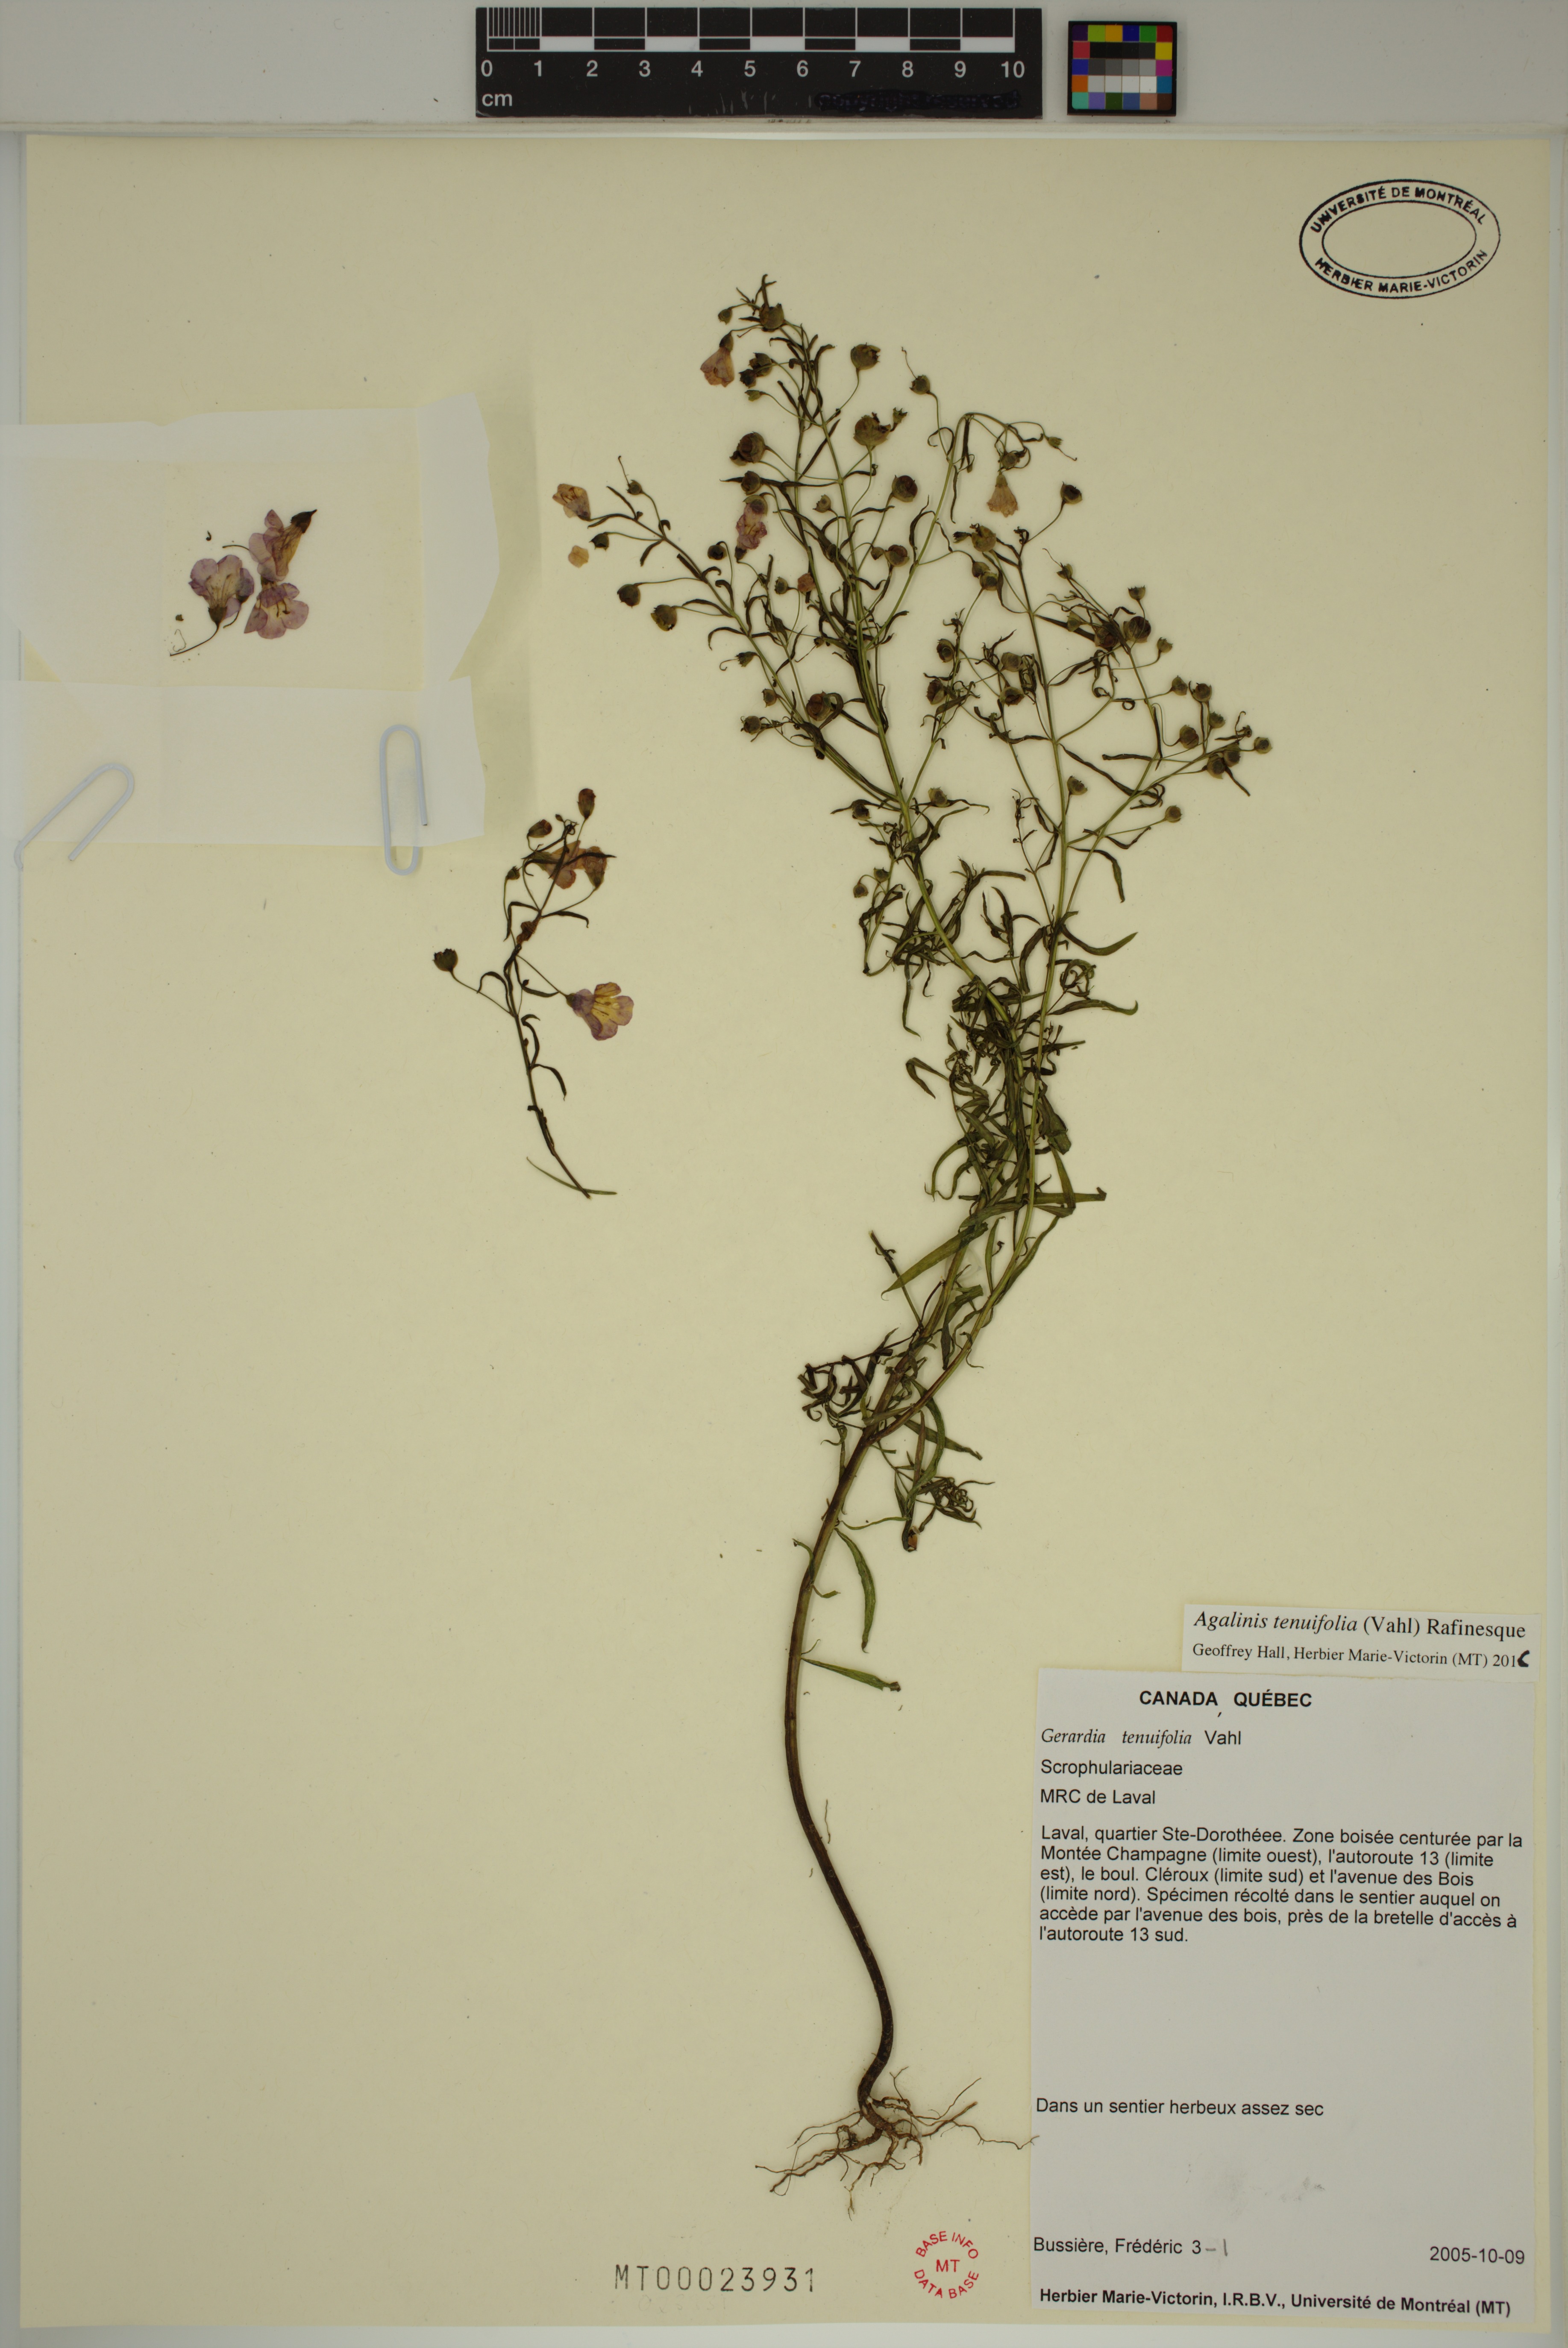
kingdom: Plantae
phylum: Tracheophyta
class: Magnoliopsida
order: Lamiales
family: Orobanchaceae
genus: Agalinis
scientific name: Agalinis tenuifolia
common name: Slender agalinis
